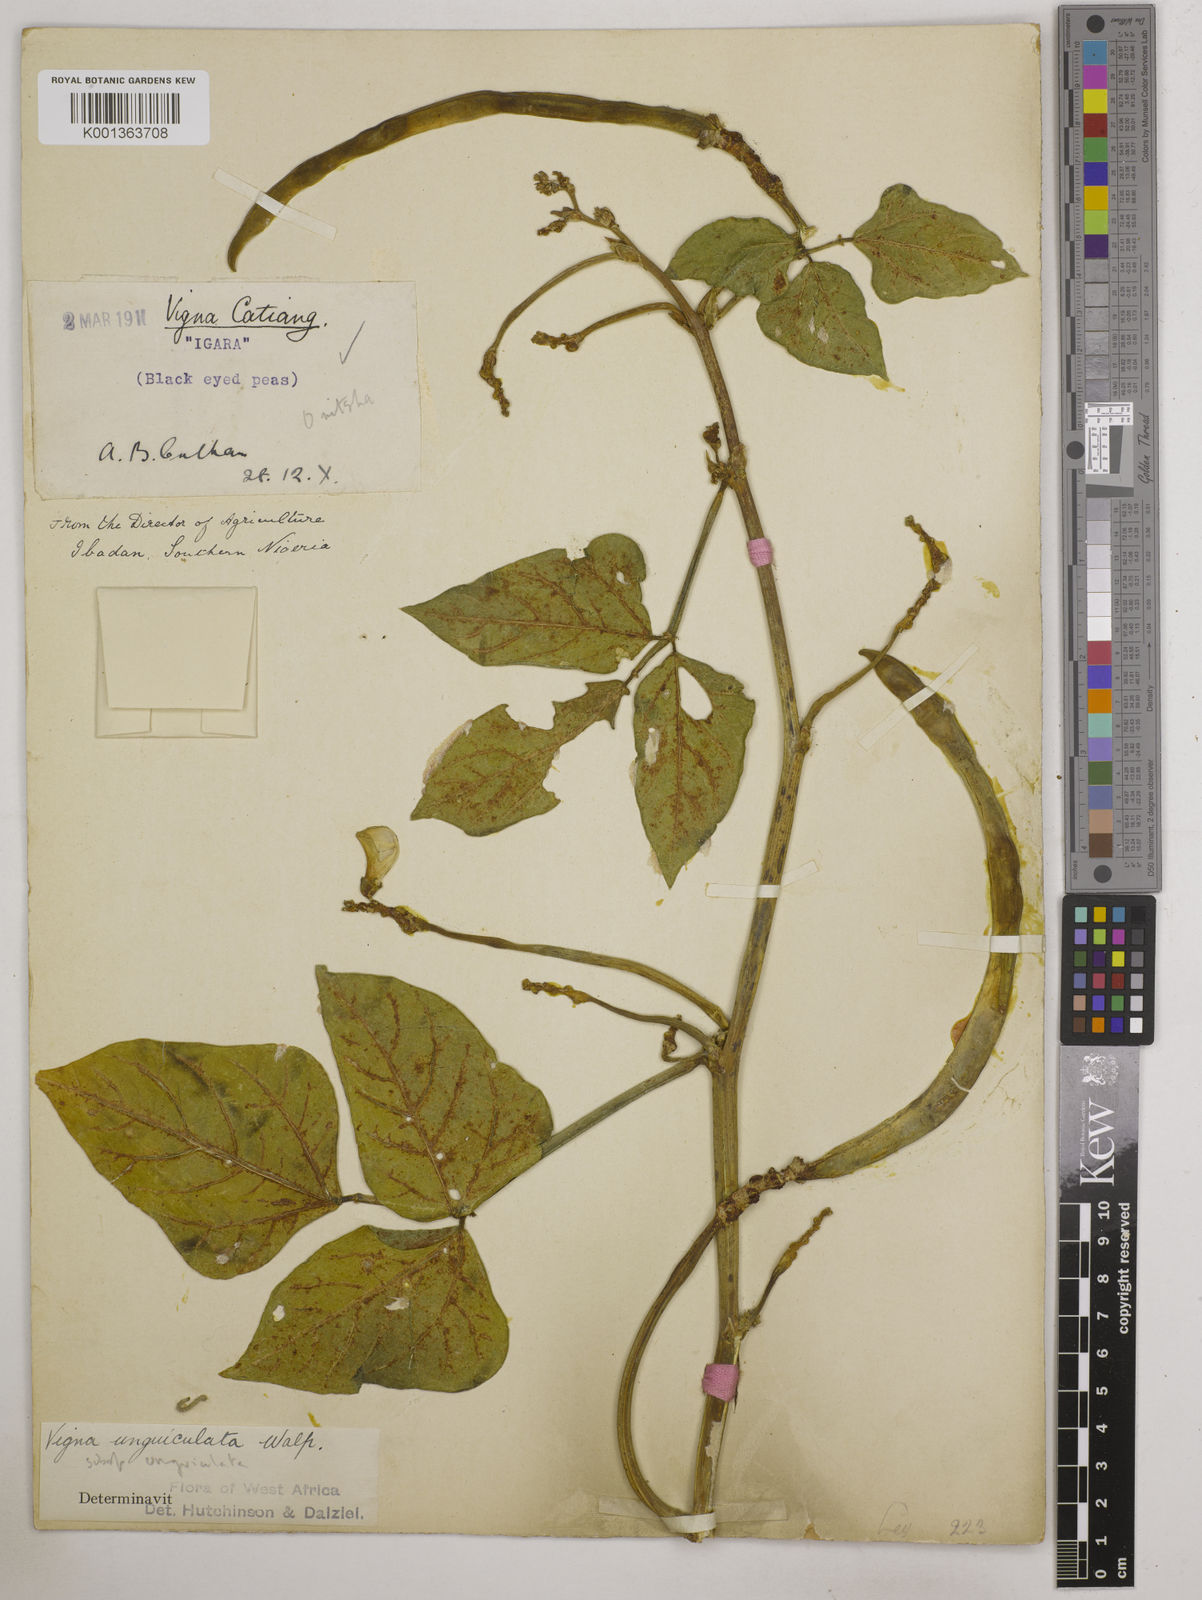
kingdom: Plantae
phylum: Tracheophyta
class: Magnoliopsida
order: Fabales
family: Fabaceae
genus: Vigna
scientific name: Vigna unguiculata
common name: Cowpea
